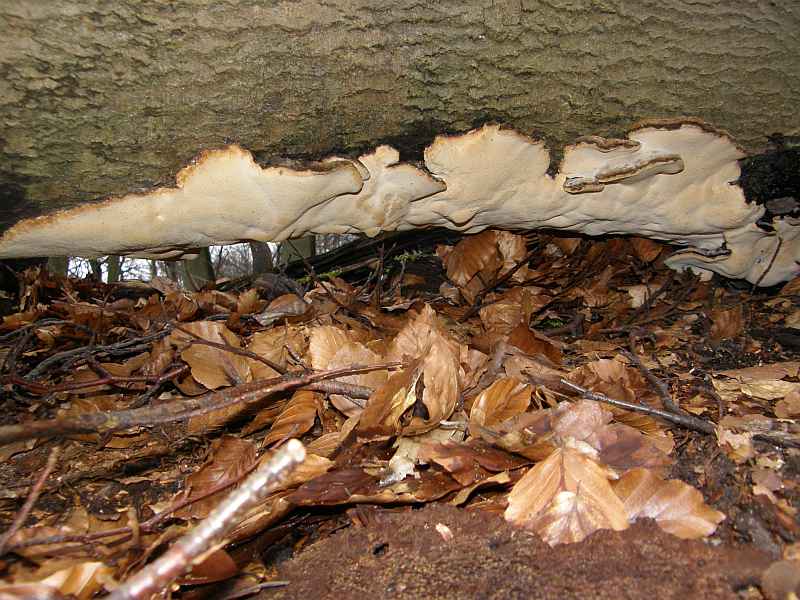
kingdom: Fungi
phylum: Basidiomycota
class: Agaricomycetes
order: Polyporales
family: Ischnodermataceae
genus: Ischnoderma
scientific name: Ischnoderma resinosum
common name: løv-tjæreporesvamp
